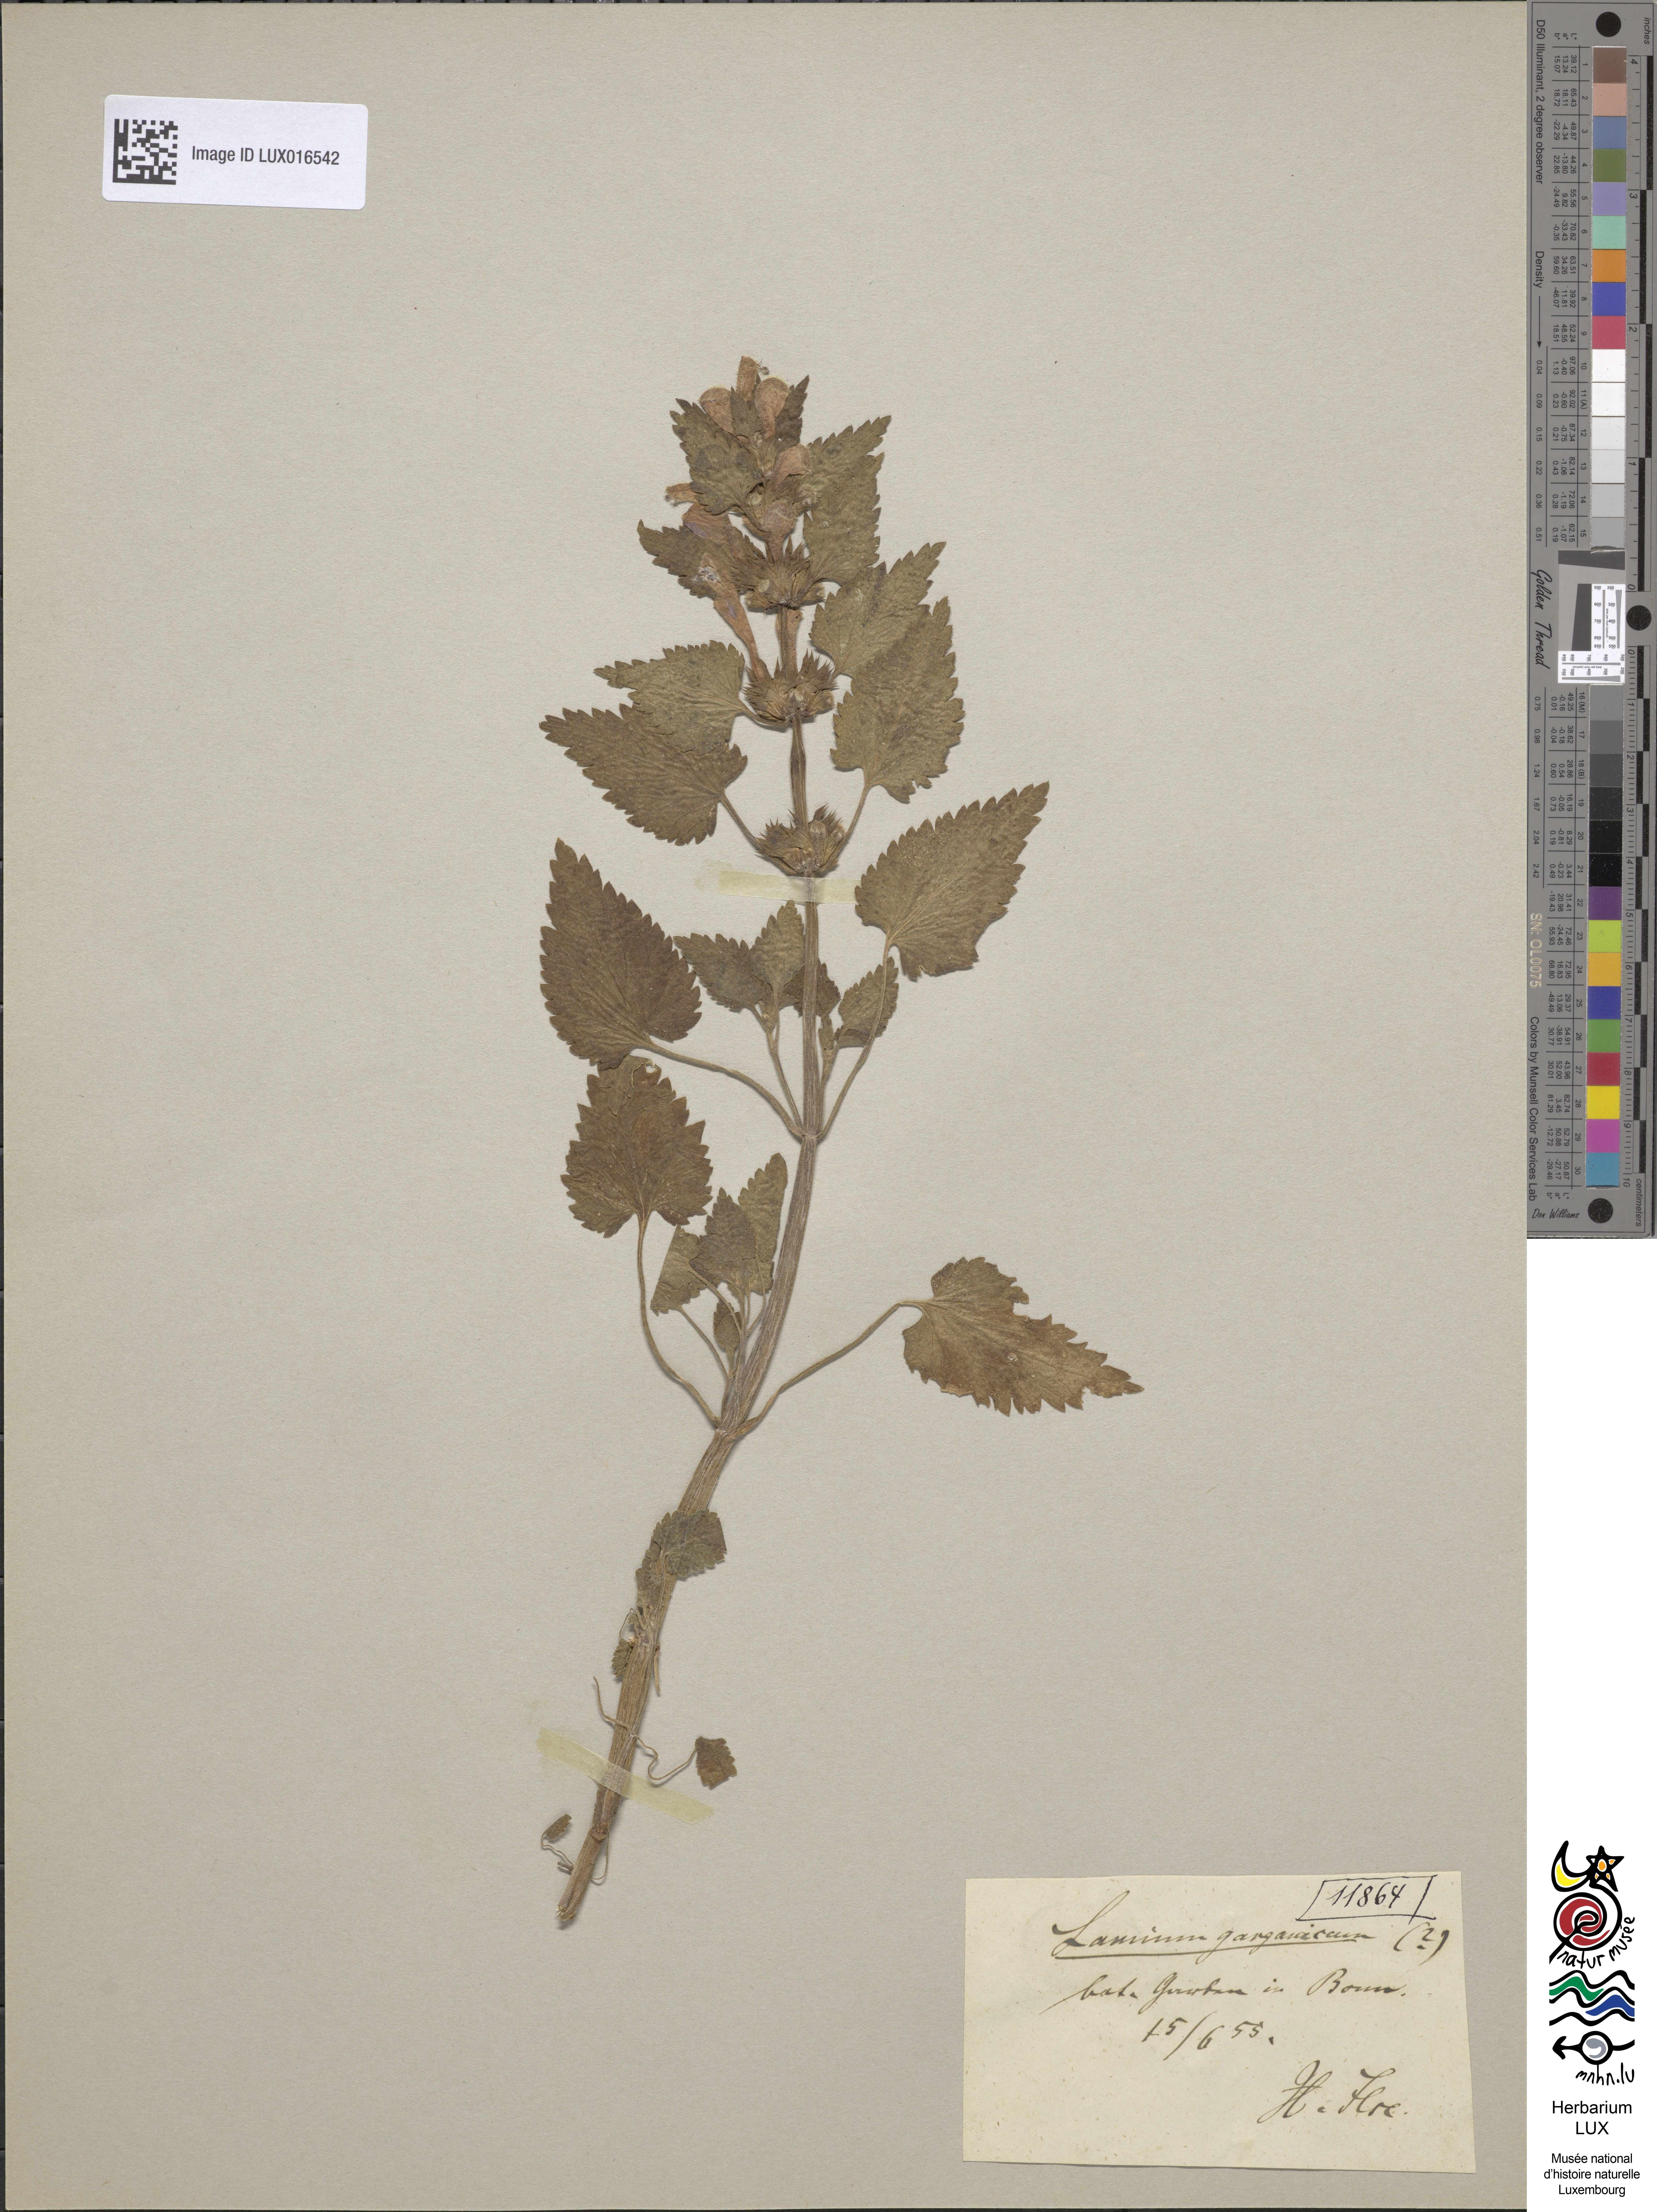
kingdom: Plantae
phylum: Tracheophyta
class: Magnoliopsida
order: Lamiales
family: Lamiaceae
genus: Lamium
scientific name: Lamium garganicum
